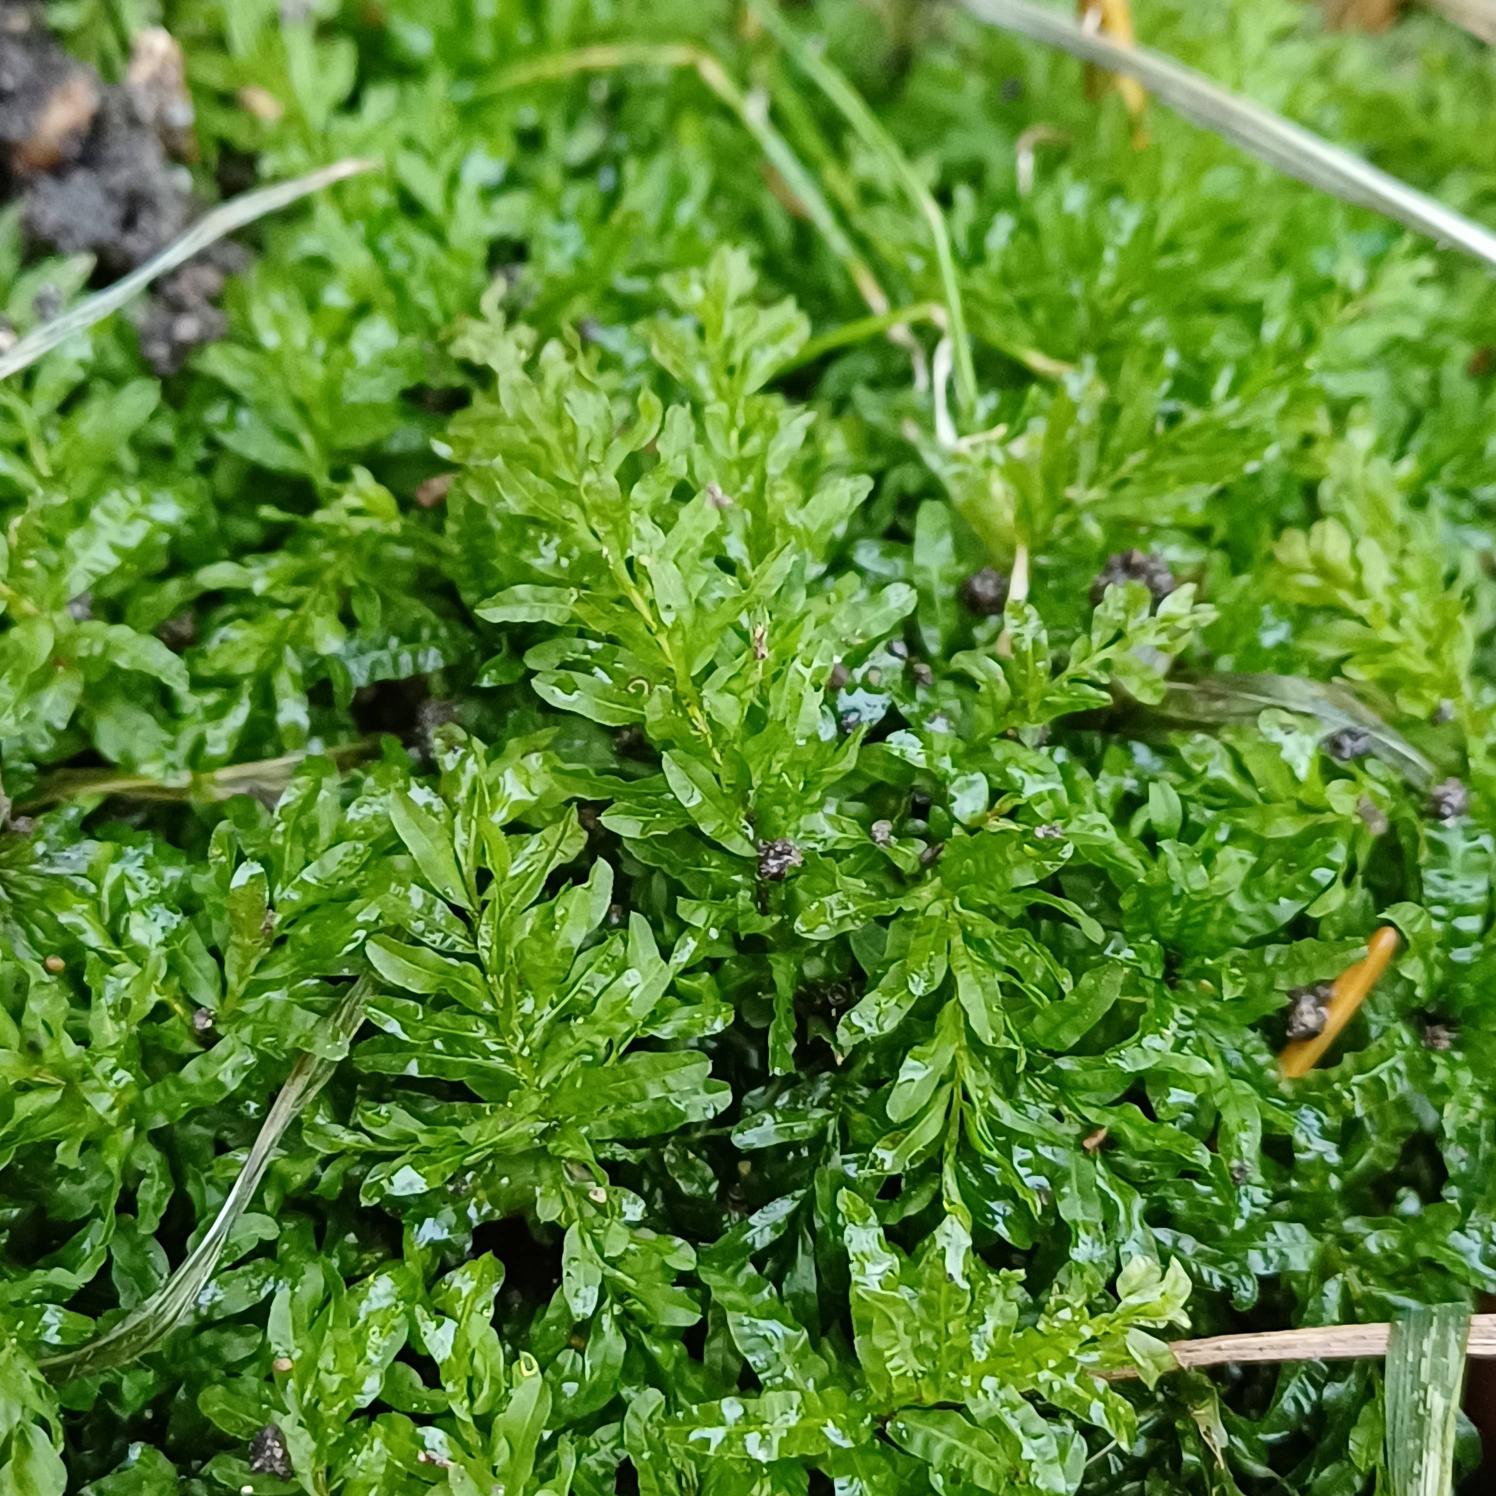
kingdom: Plantae
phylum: Bryophyta
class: Bryopsida
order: Bryales
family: Mniaceae
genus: Plagiomnium
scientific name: Plagiomnium undulatum
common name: Bølget krybstjerne
